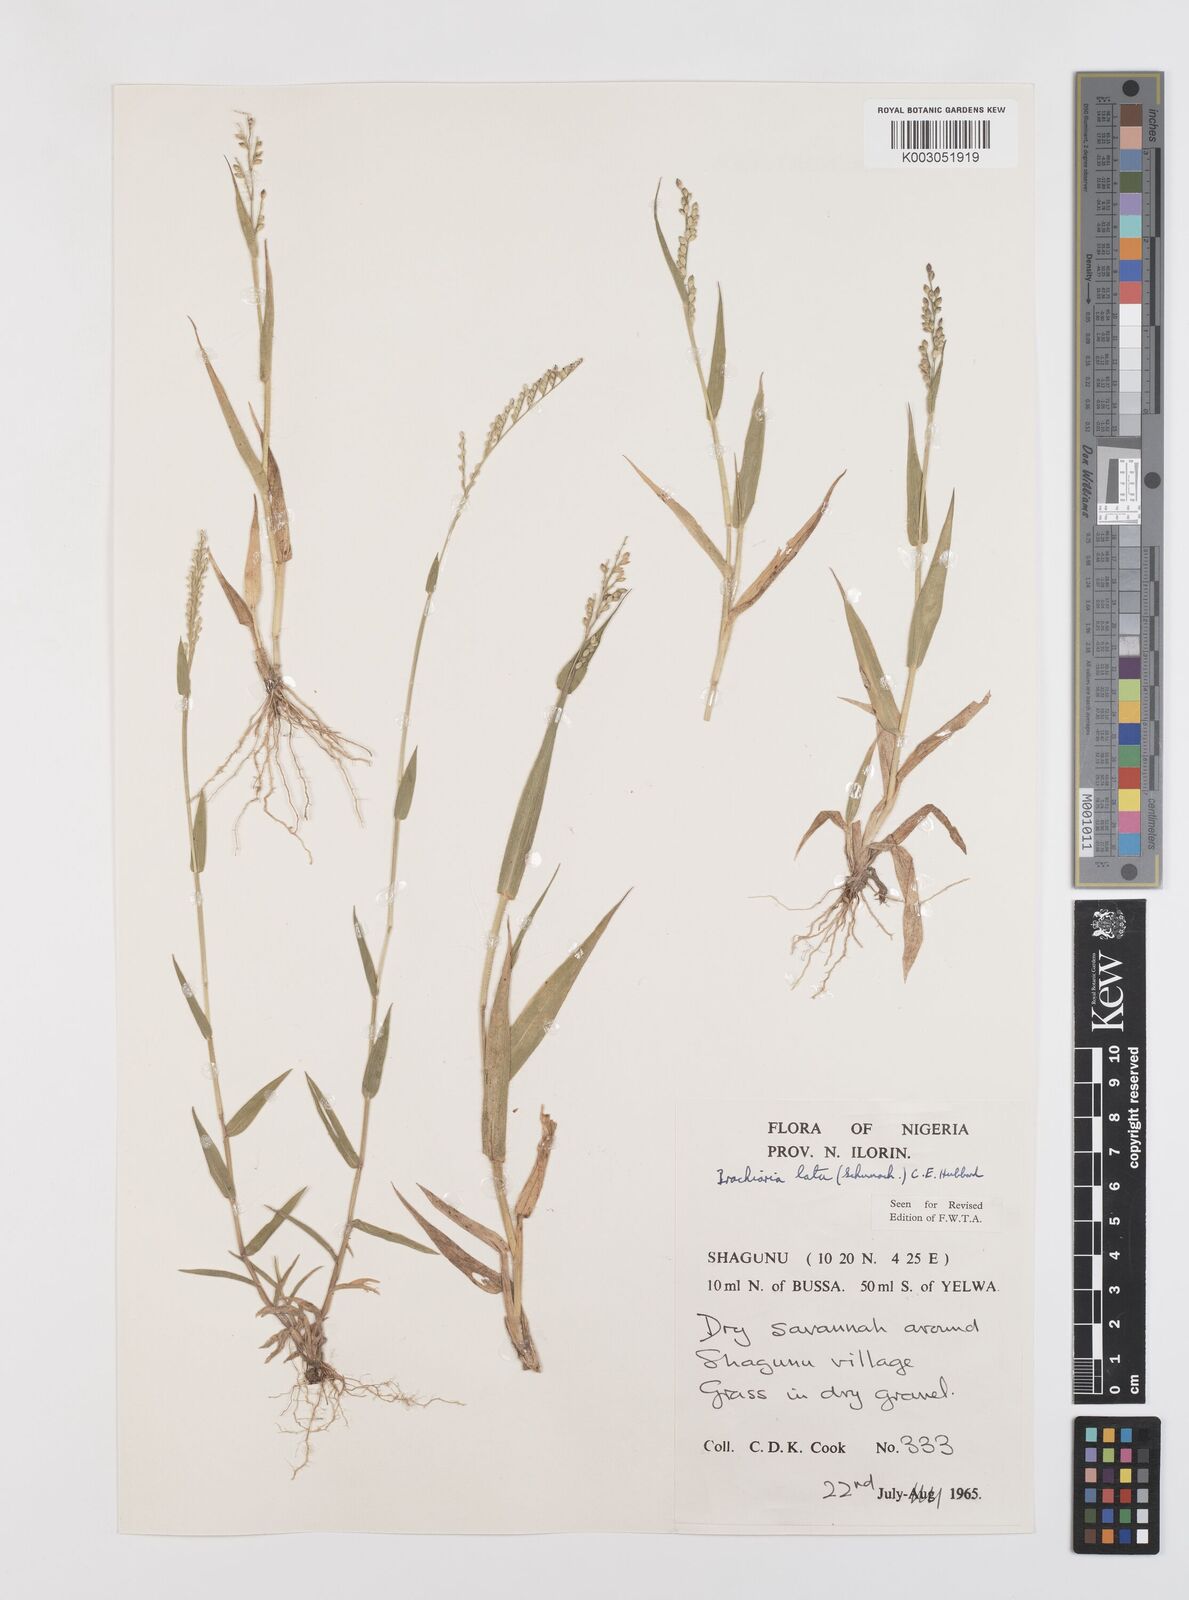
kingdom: Plantae
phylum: Tracheophyta
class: Liliopsida
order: Poales
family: Poaceae
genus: Urochloa
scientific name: Urochloa lata
